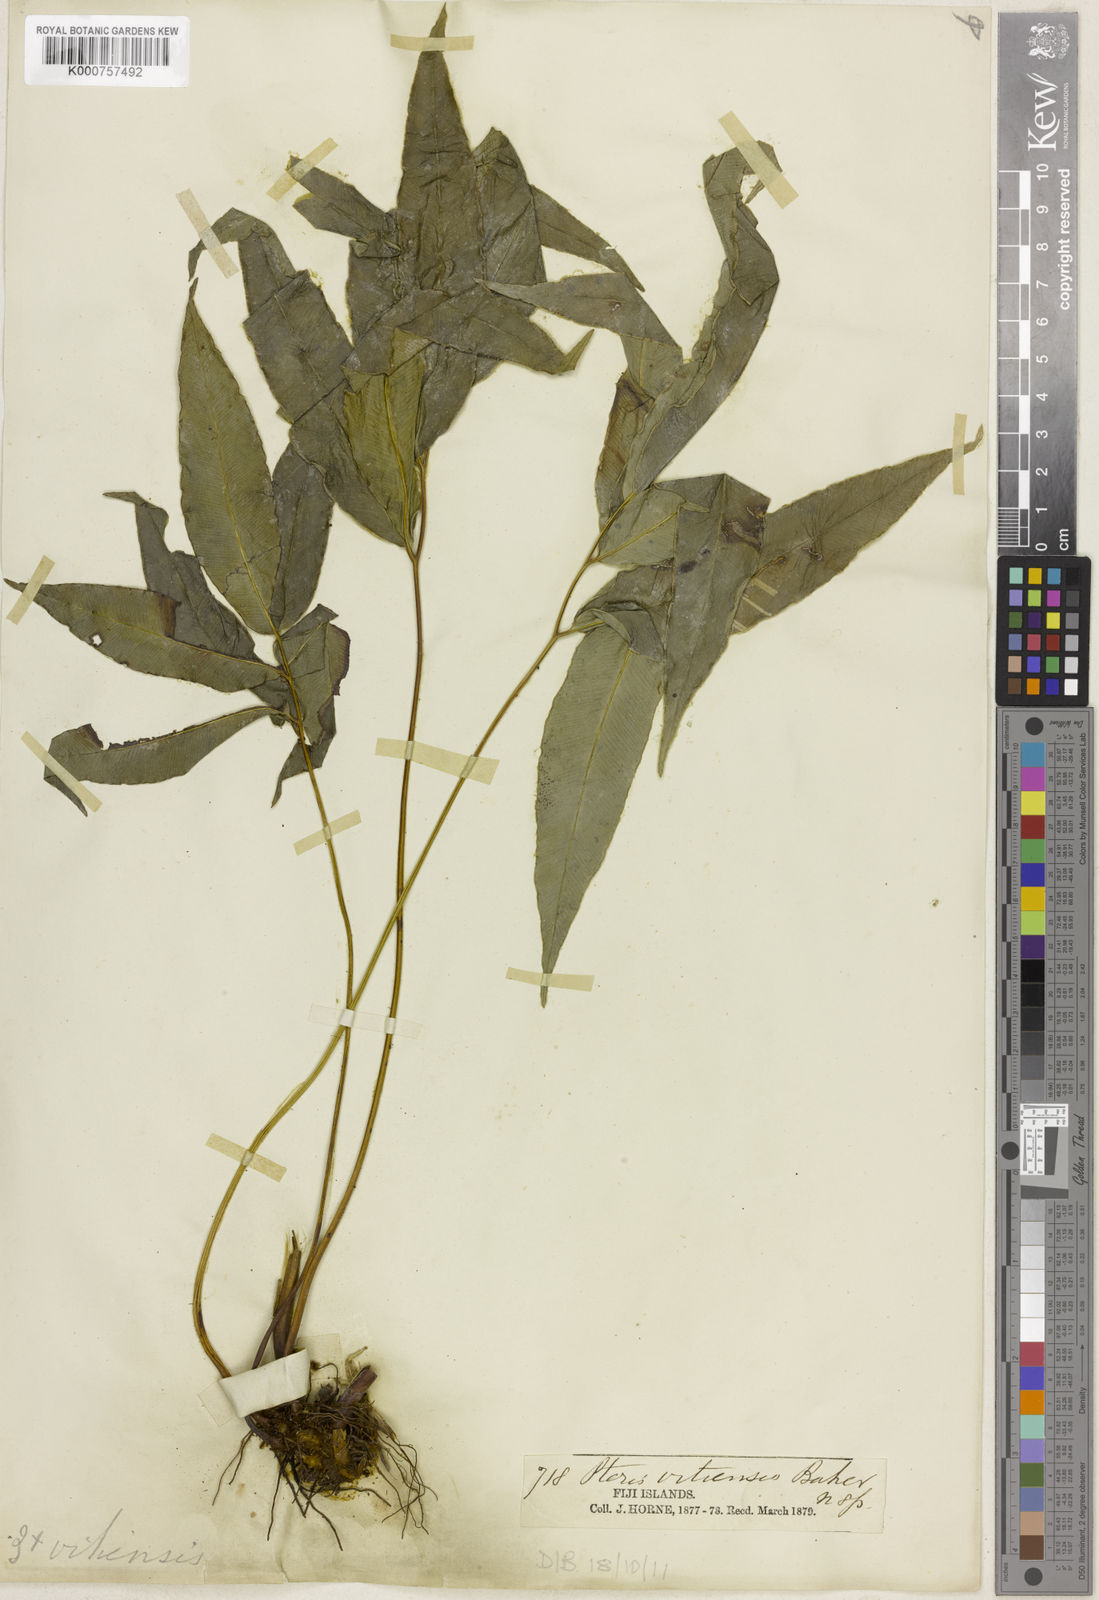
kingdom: Plantae
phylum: Tracheophyta
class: Polypodiopsida
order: Polypodiales
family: Pteridaceae
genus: Pteris
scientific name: Pteris vitiensis
